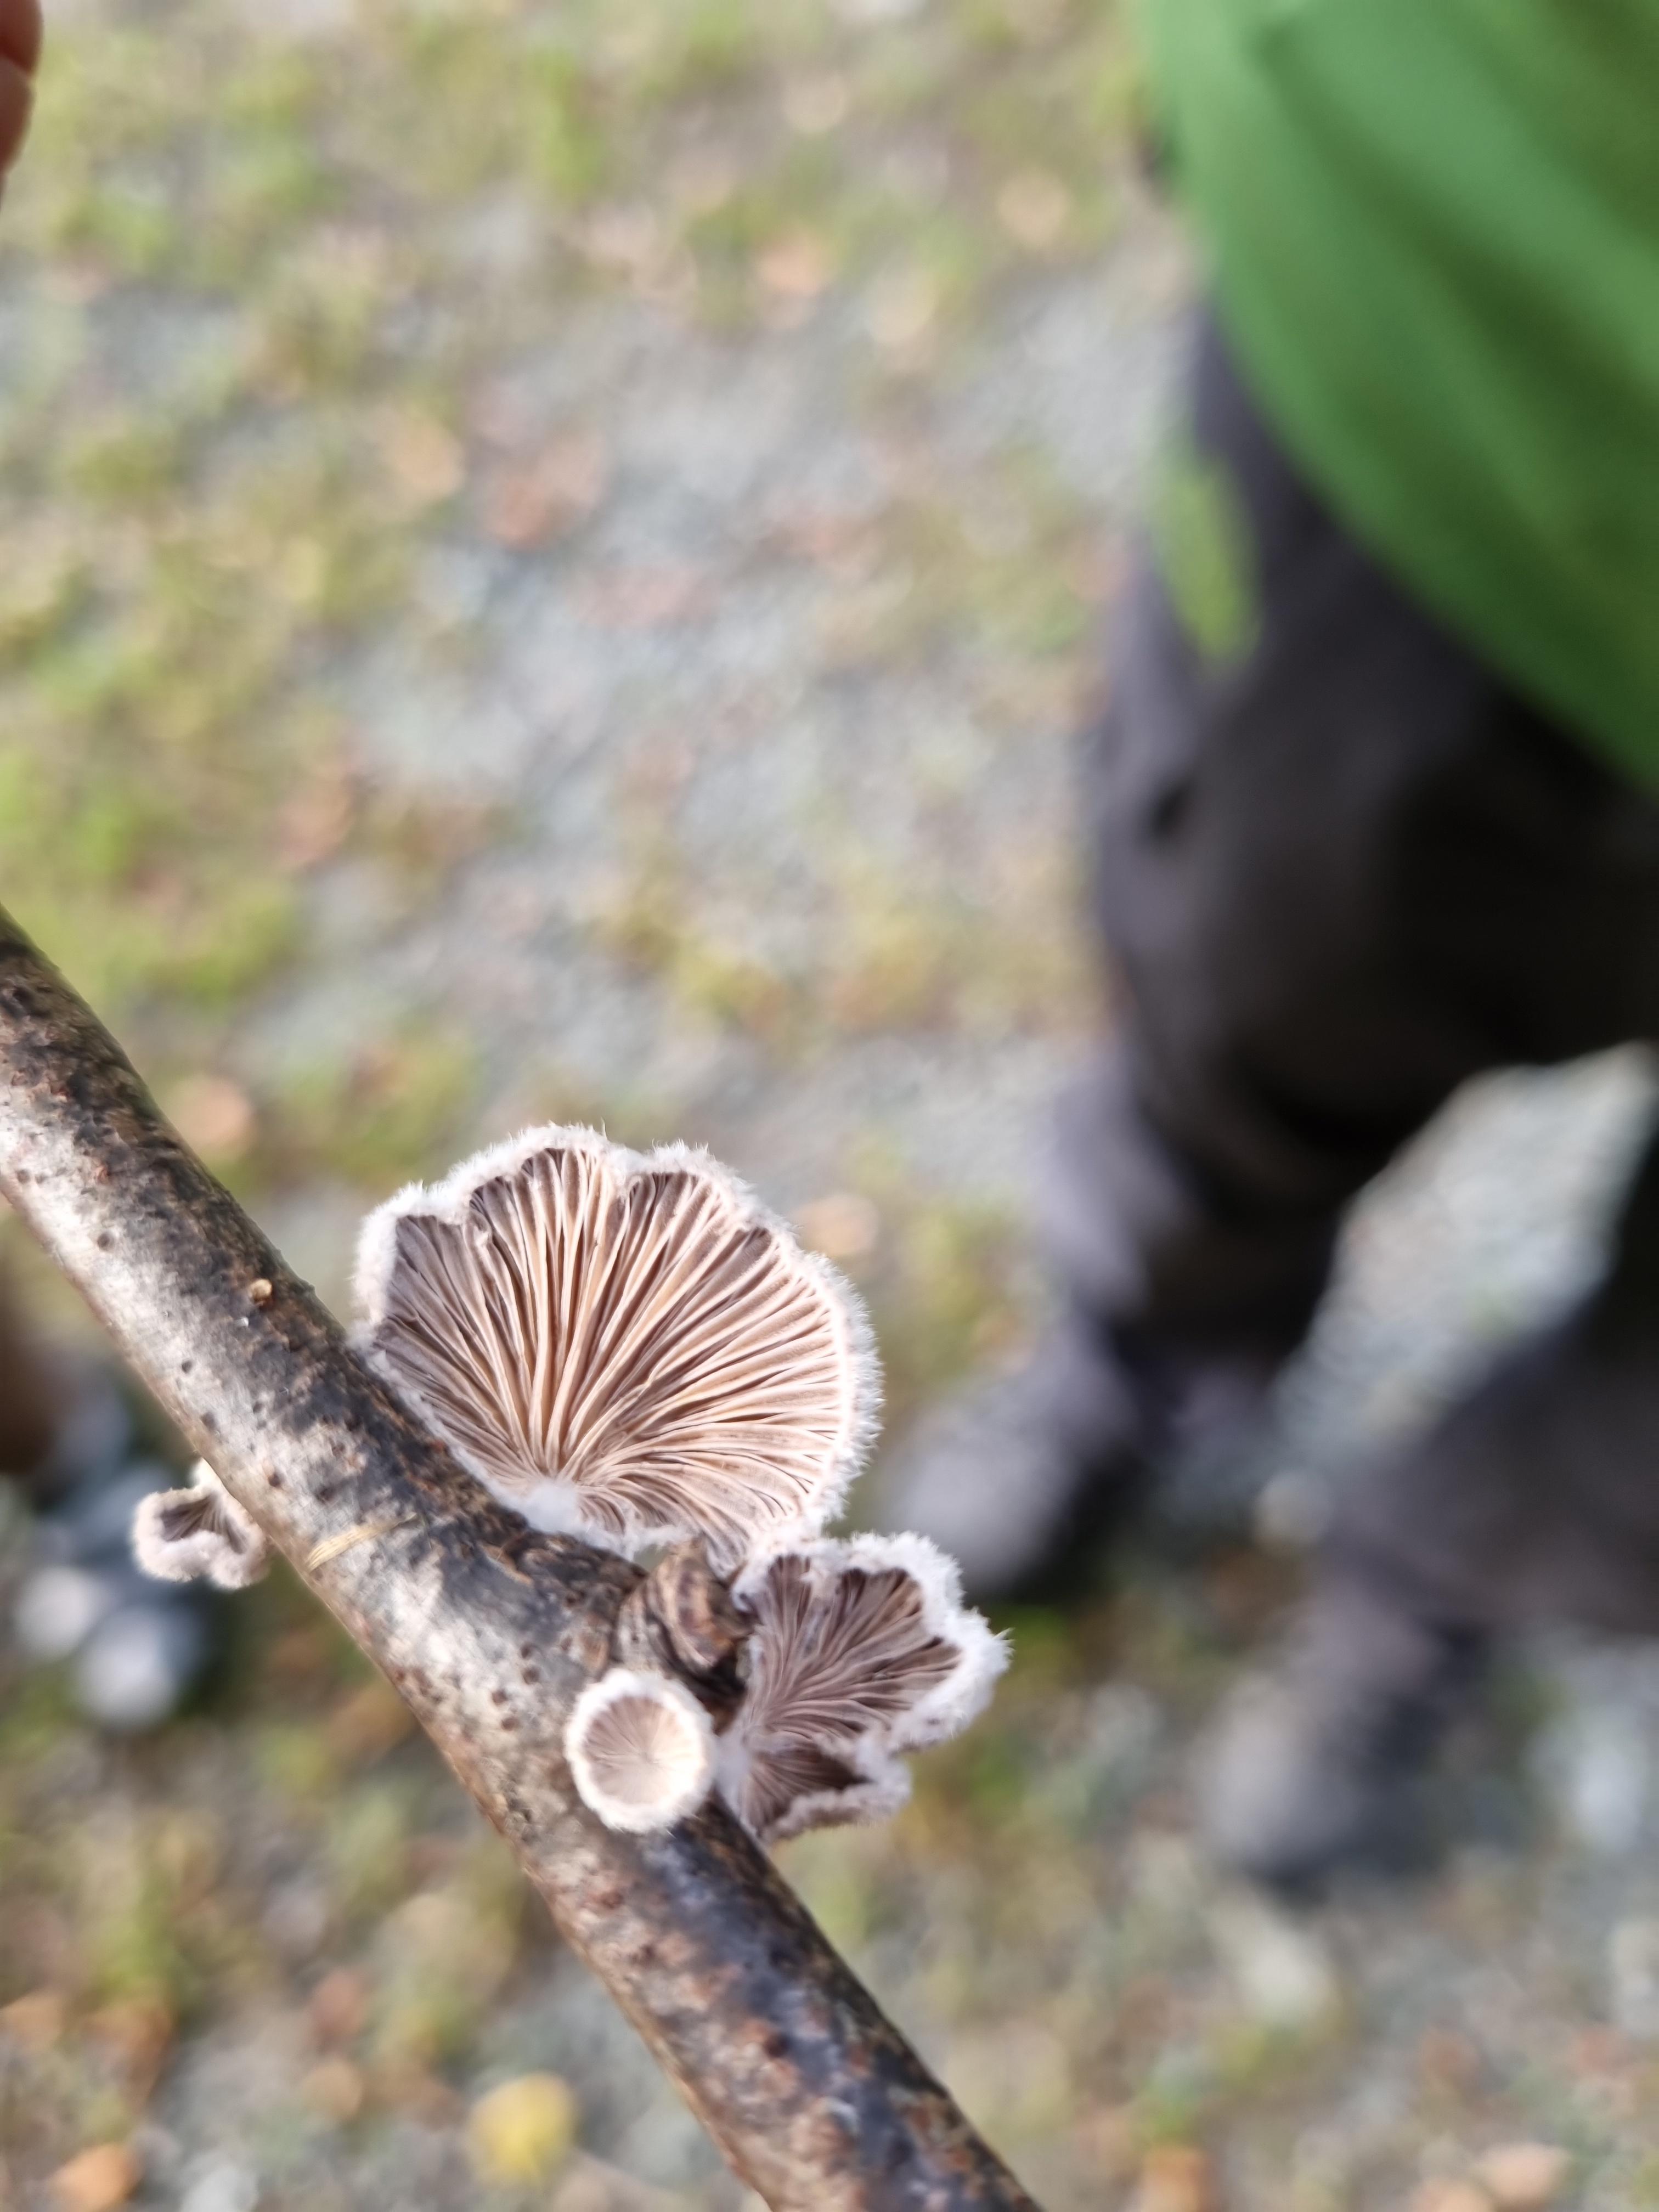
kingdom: Fungi
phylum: Basidiomycota
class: Agaricomycetes
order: Agaricales
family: Schizophyllaceae
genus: Schizophyllum
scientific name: Schizophyllum commune
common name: kløvblad
